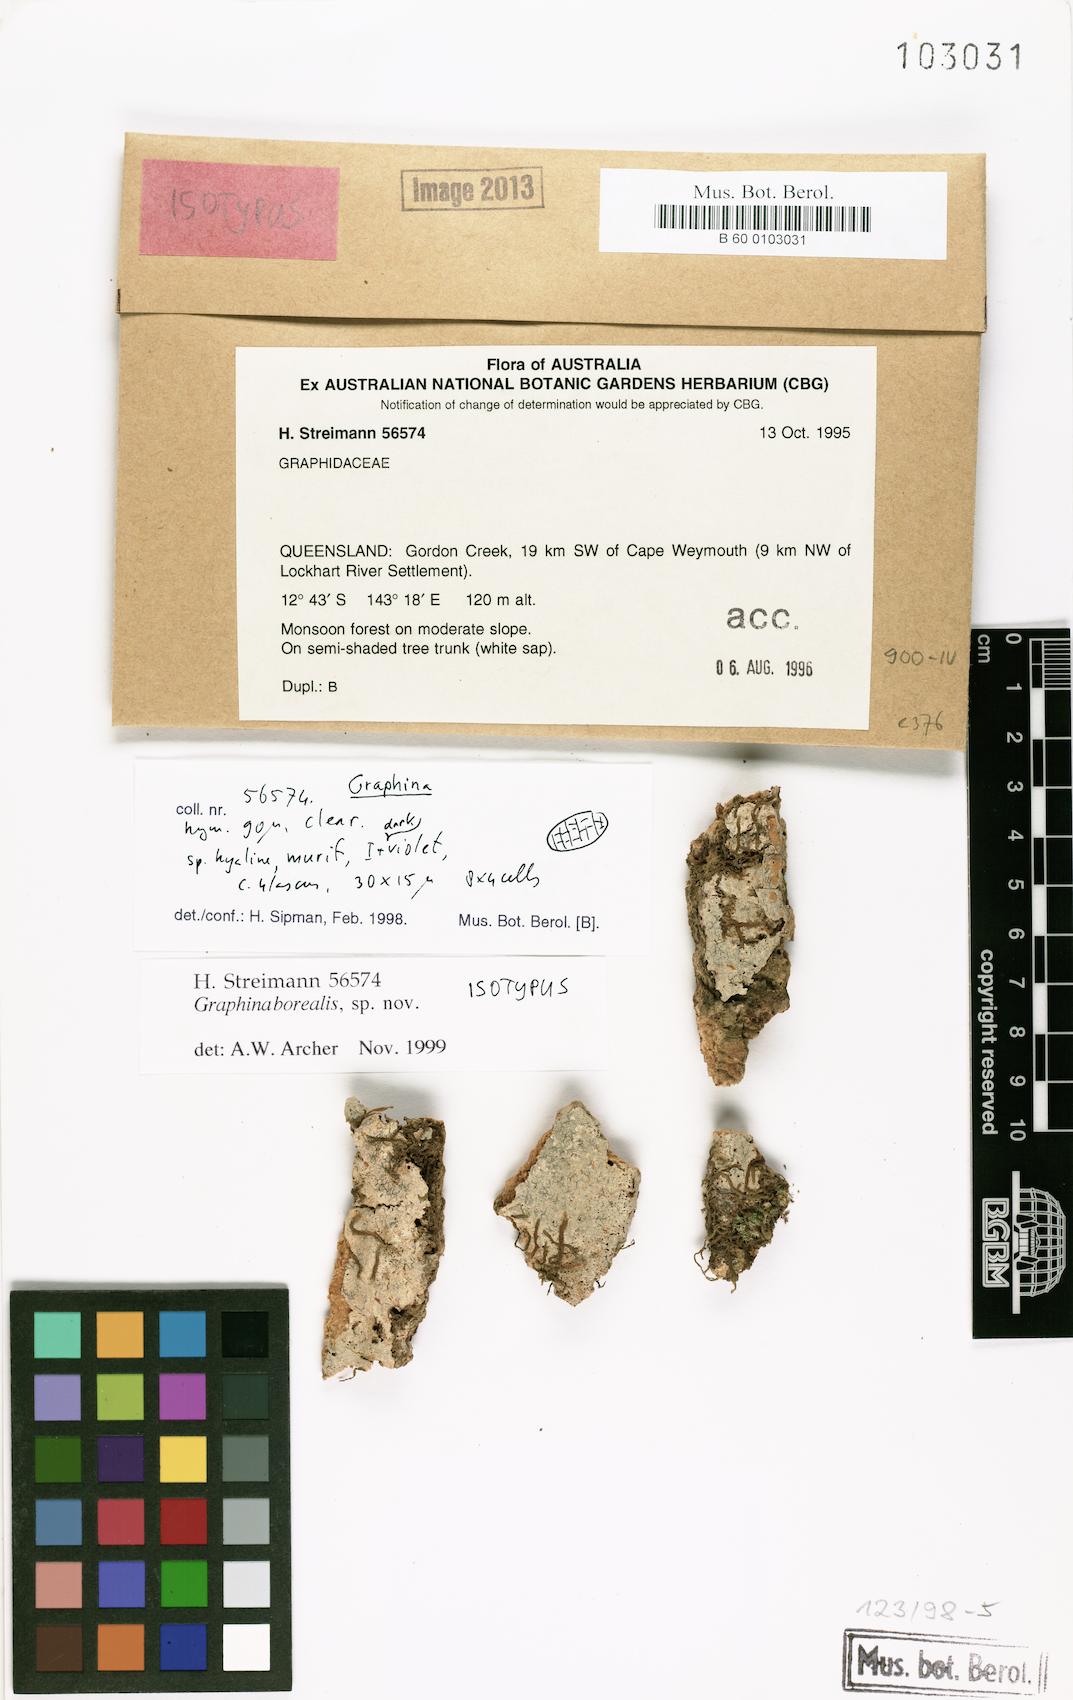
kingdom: Fungi
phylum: Ascomycota
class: Lecanoromycetes
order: Ostropales
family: Graphidaceae
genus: Graphis
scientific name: Graphis borealis
